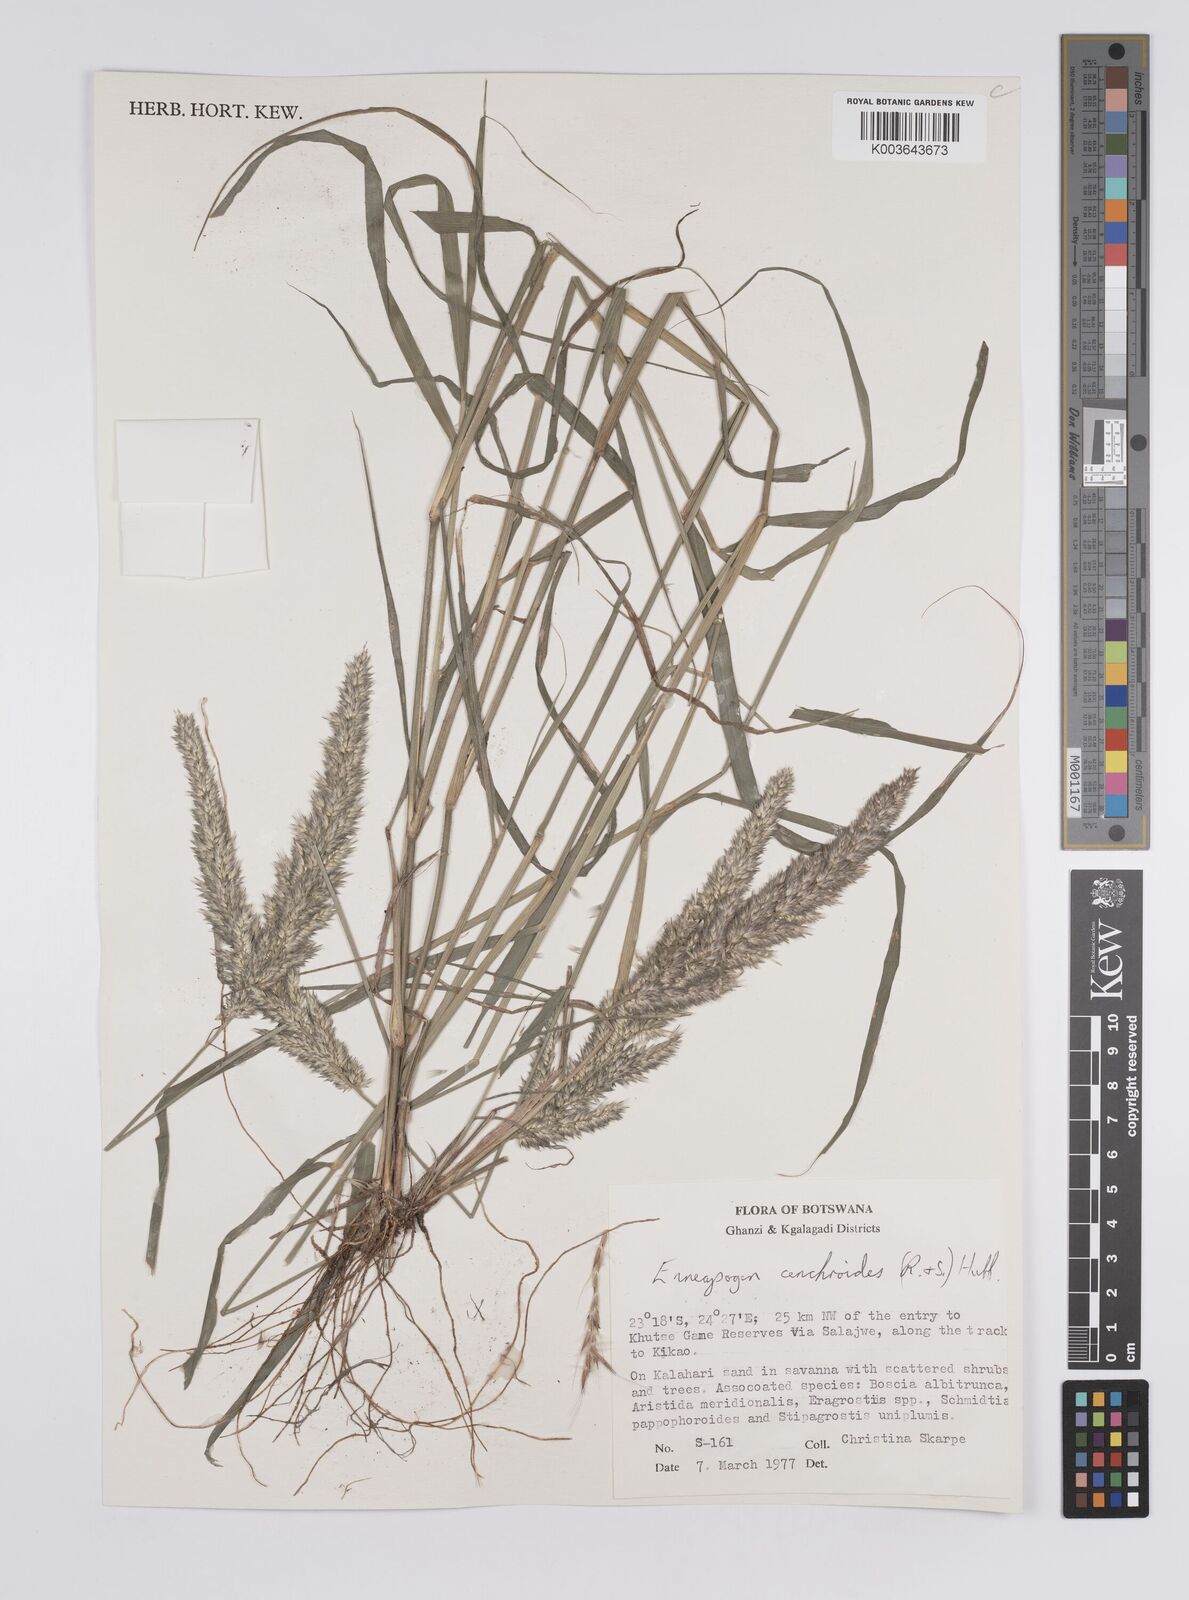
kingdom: Plantae
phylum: Tracheophyta
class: Liliopsida
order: Poales
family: Poaceae
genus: Enneapogon
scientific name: Enneapogon cenchroides
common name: Soft feather pappusgrass
